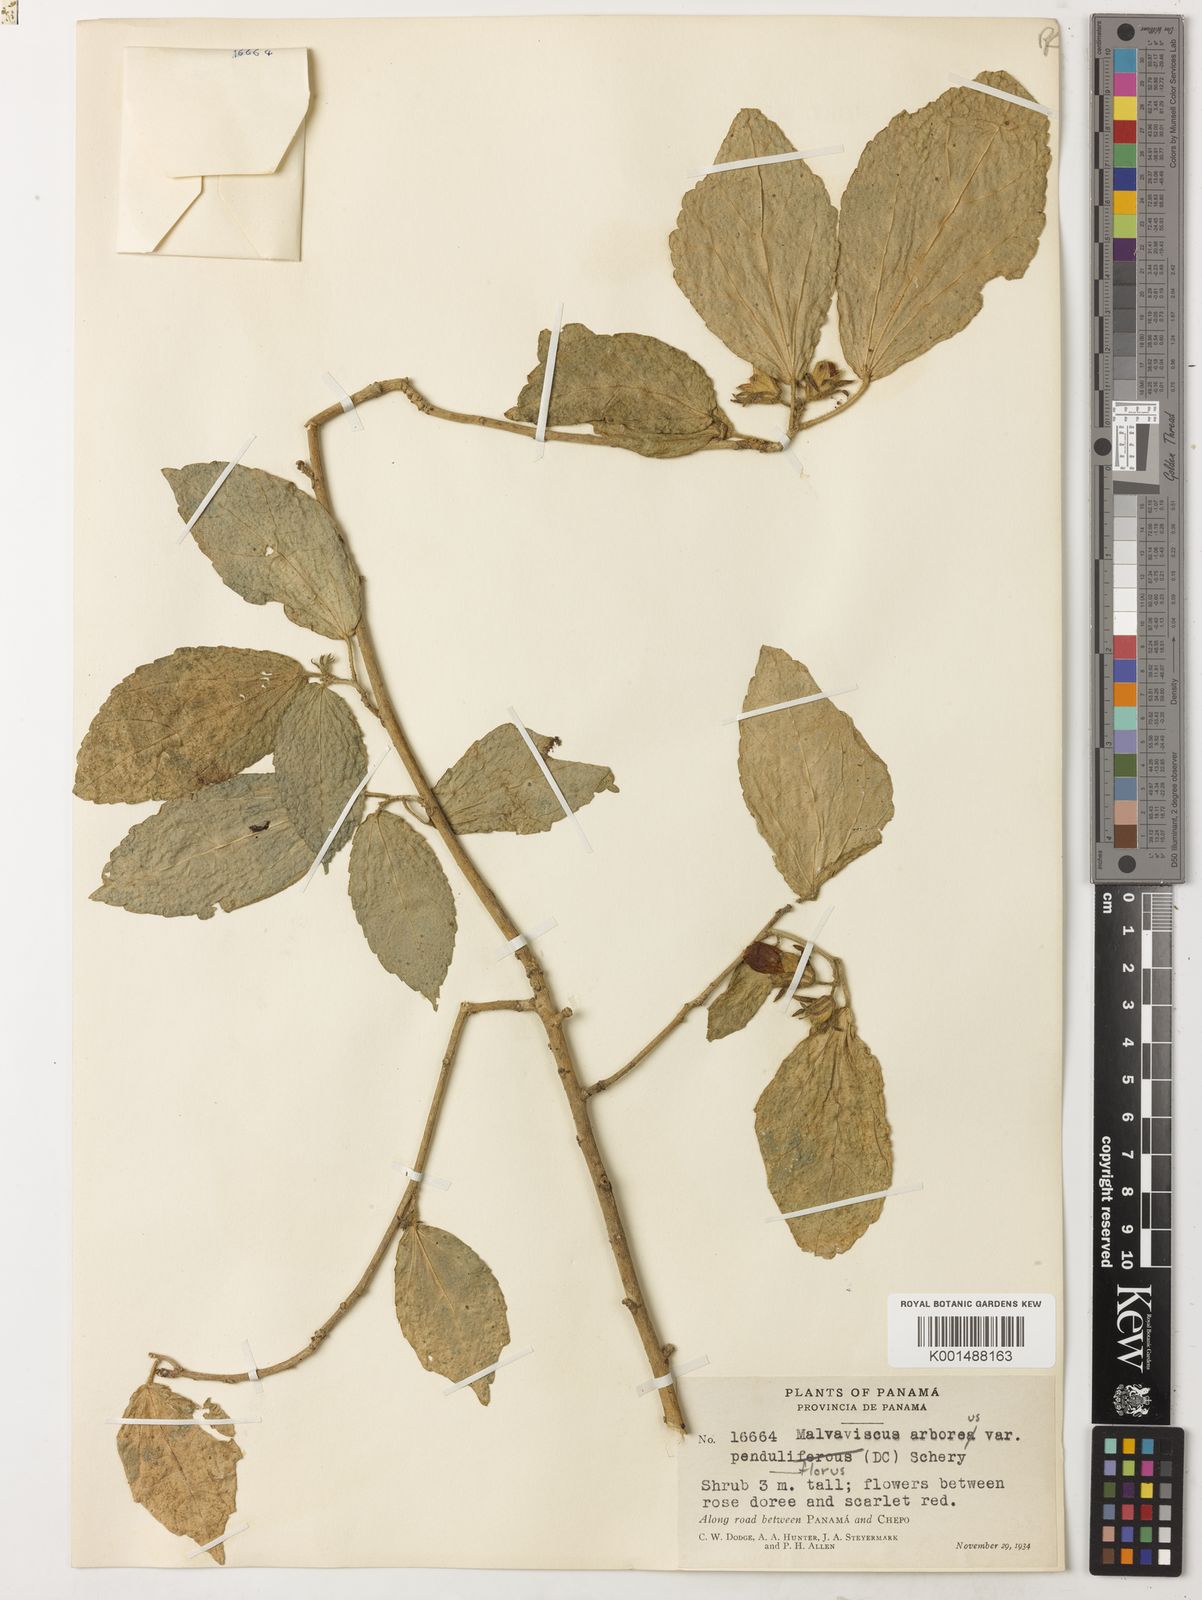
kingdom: Plantae
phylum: Tracheophyta
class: Magnoliopsida
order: Malvales
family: Malvaceae
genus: Malvaviscus
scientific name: Malvaviscus penduliflorus
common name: Mazapan
